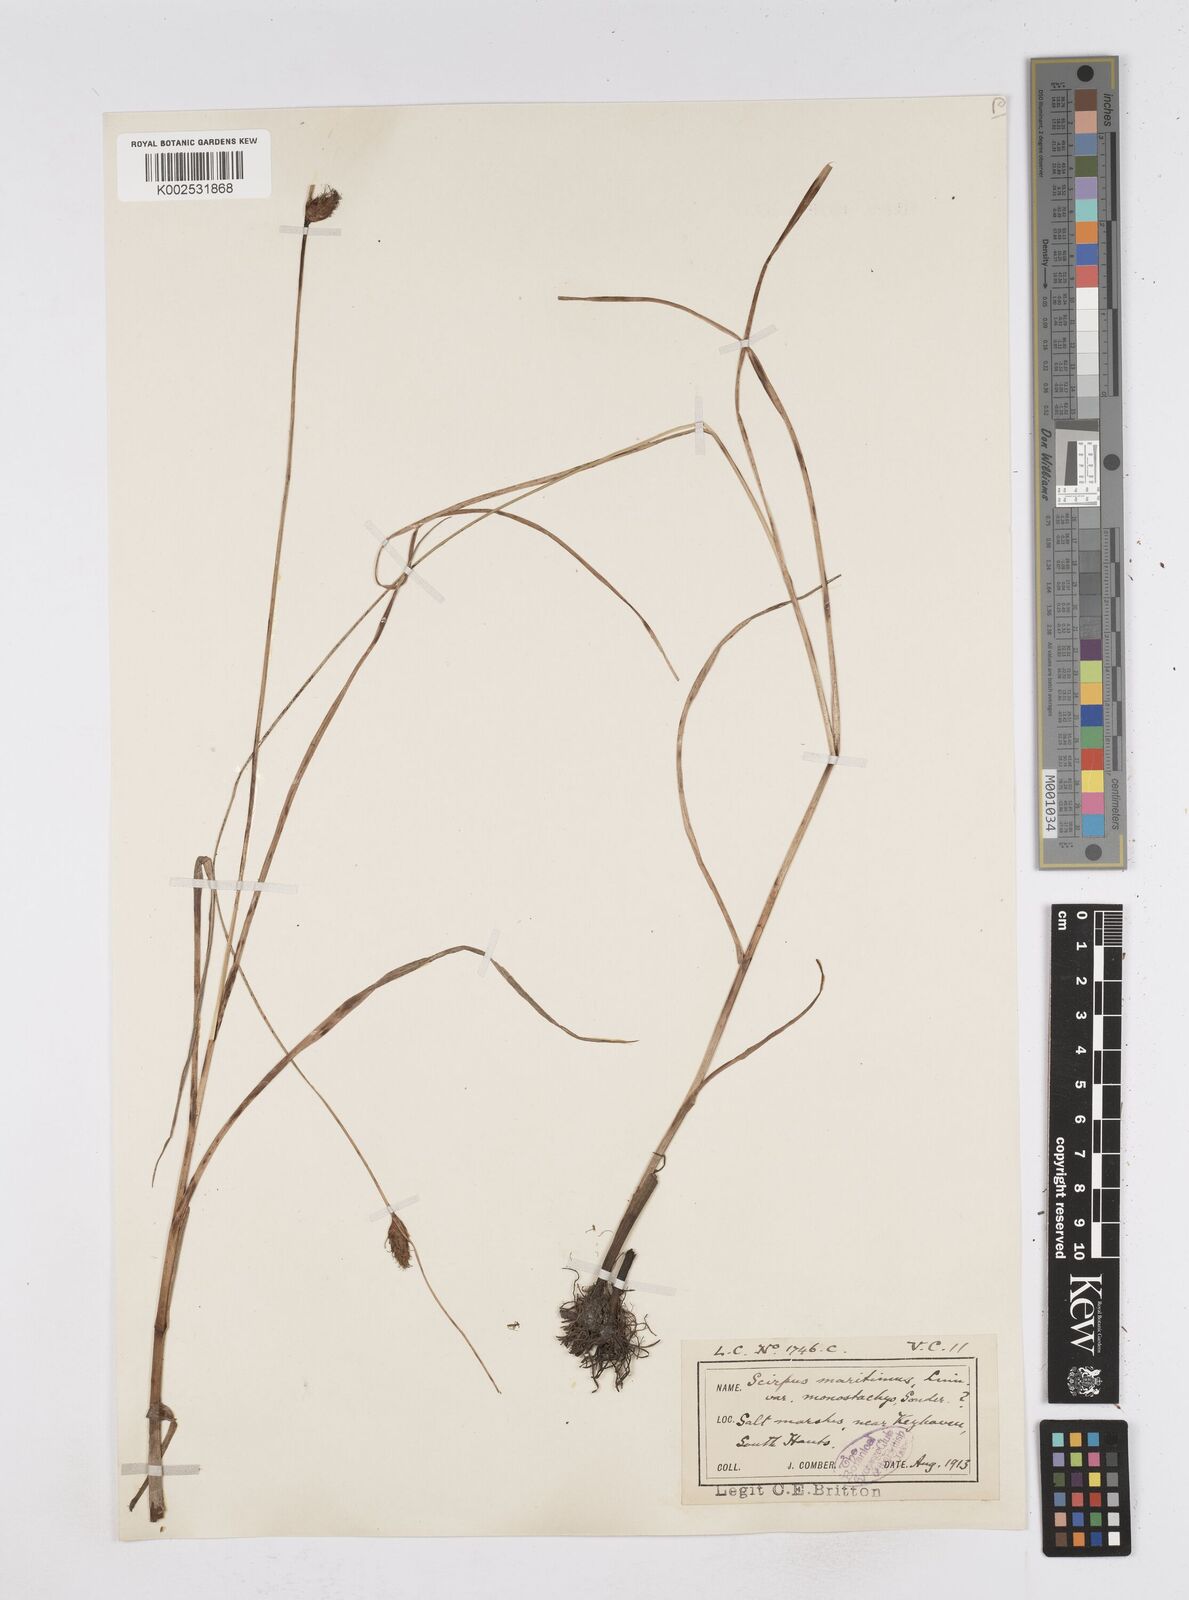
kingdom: Plantae
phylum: Tracheophyta
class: Liliopsida
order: Poales
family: Cyperaceae
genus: Bolboschoenus
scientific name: Bolboschoenus maritimus
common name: Sea club-rush
